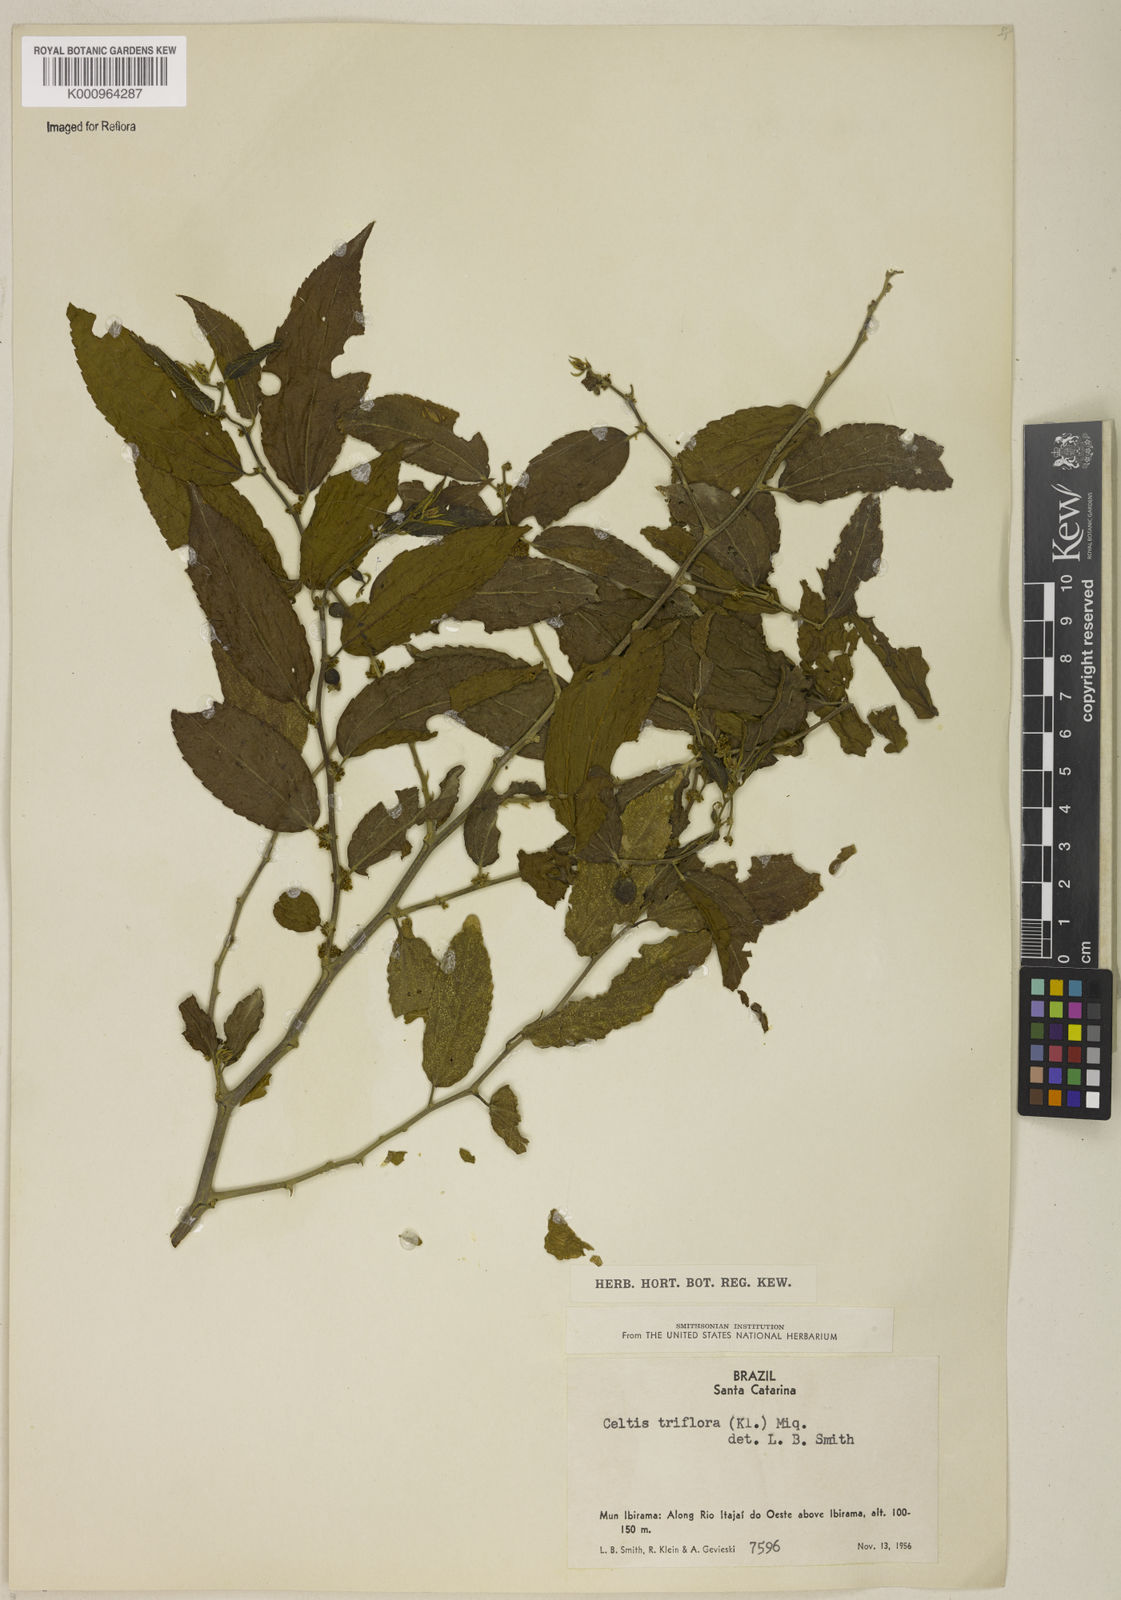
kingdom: Plantae
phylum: Tracheophyta
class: Magnoliopsida
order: Rosales
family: Cannabaceae
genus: Celtis
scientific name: Celtis iguanaea
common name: Iguana hackberry
